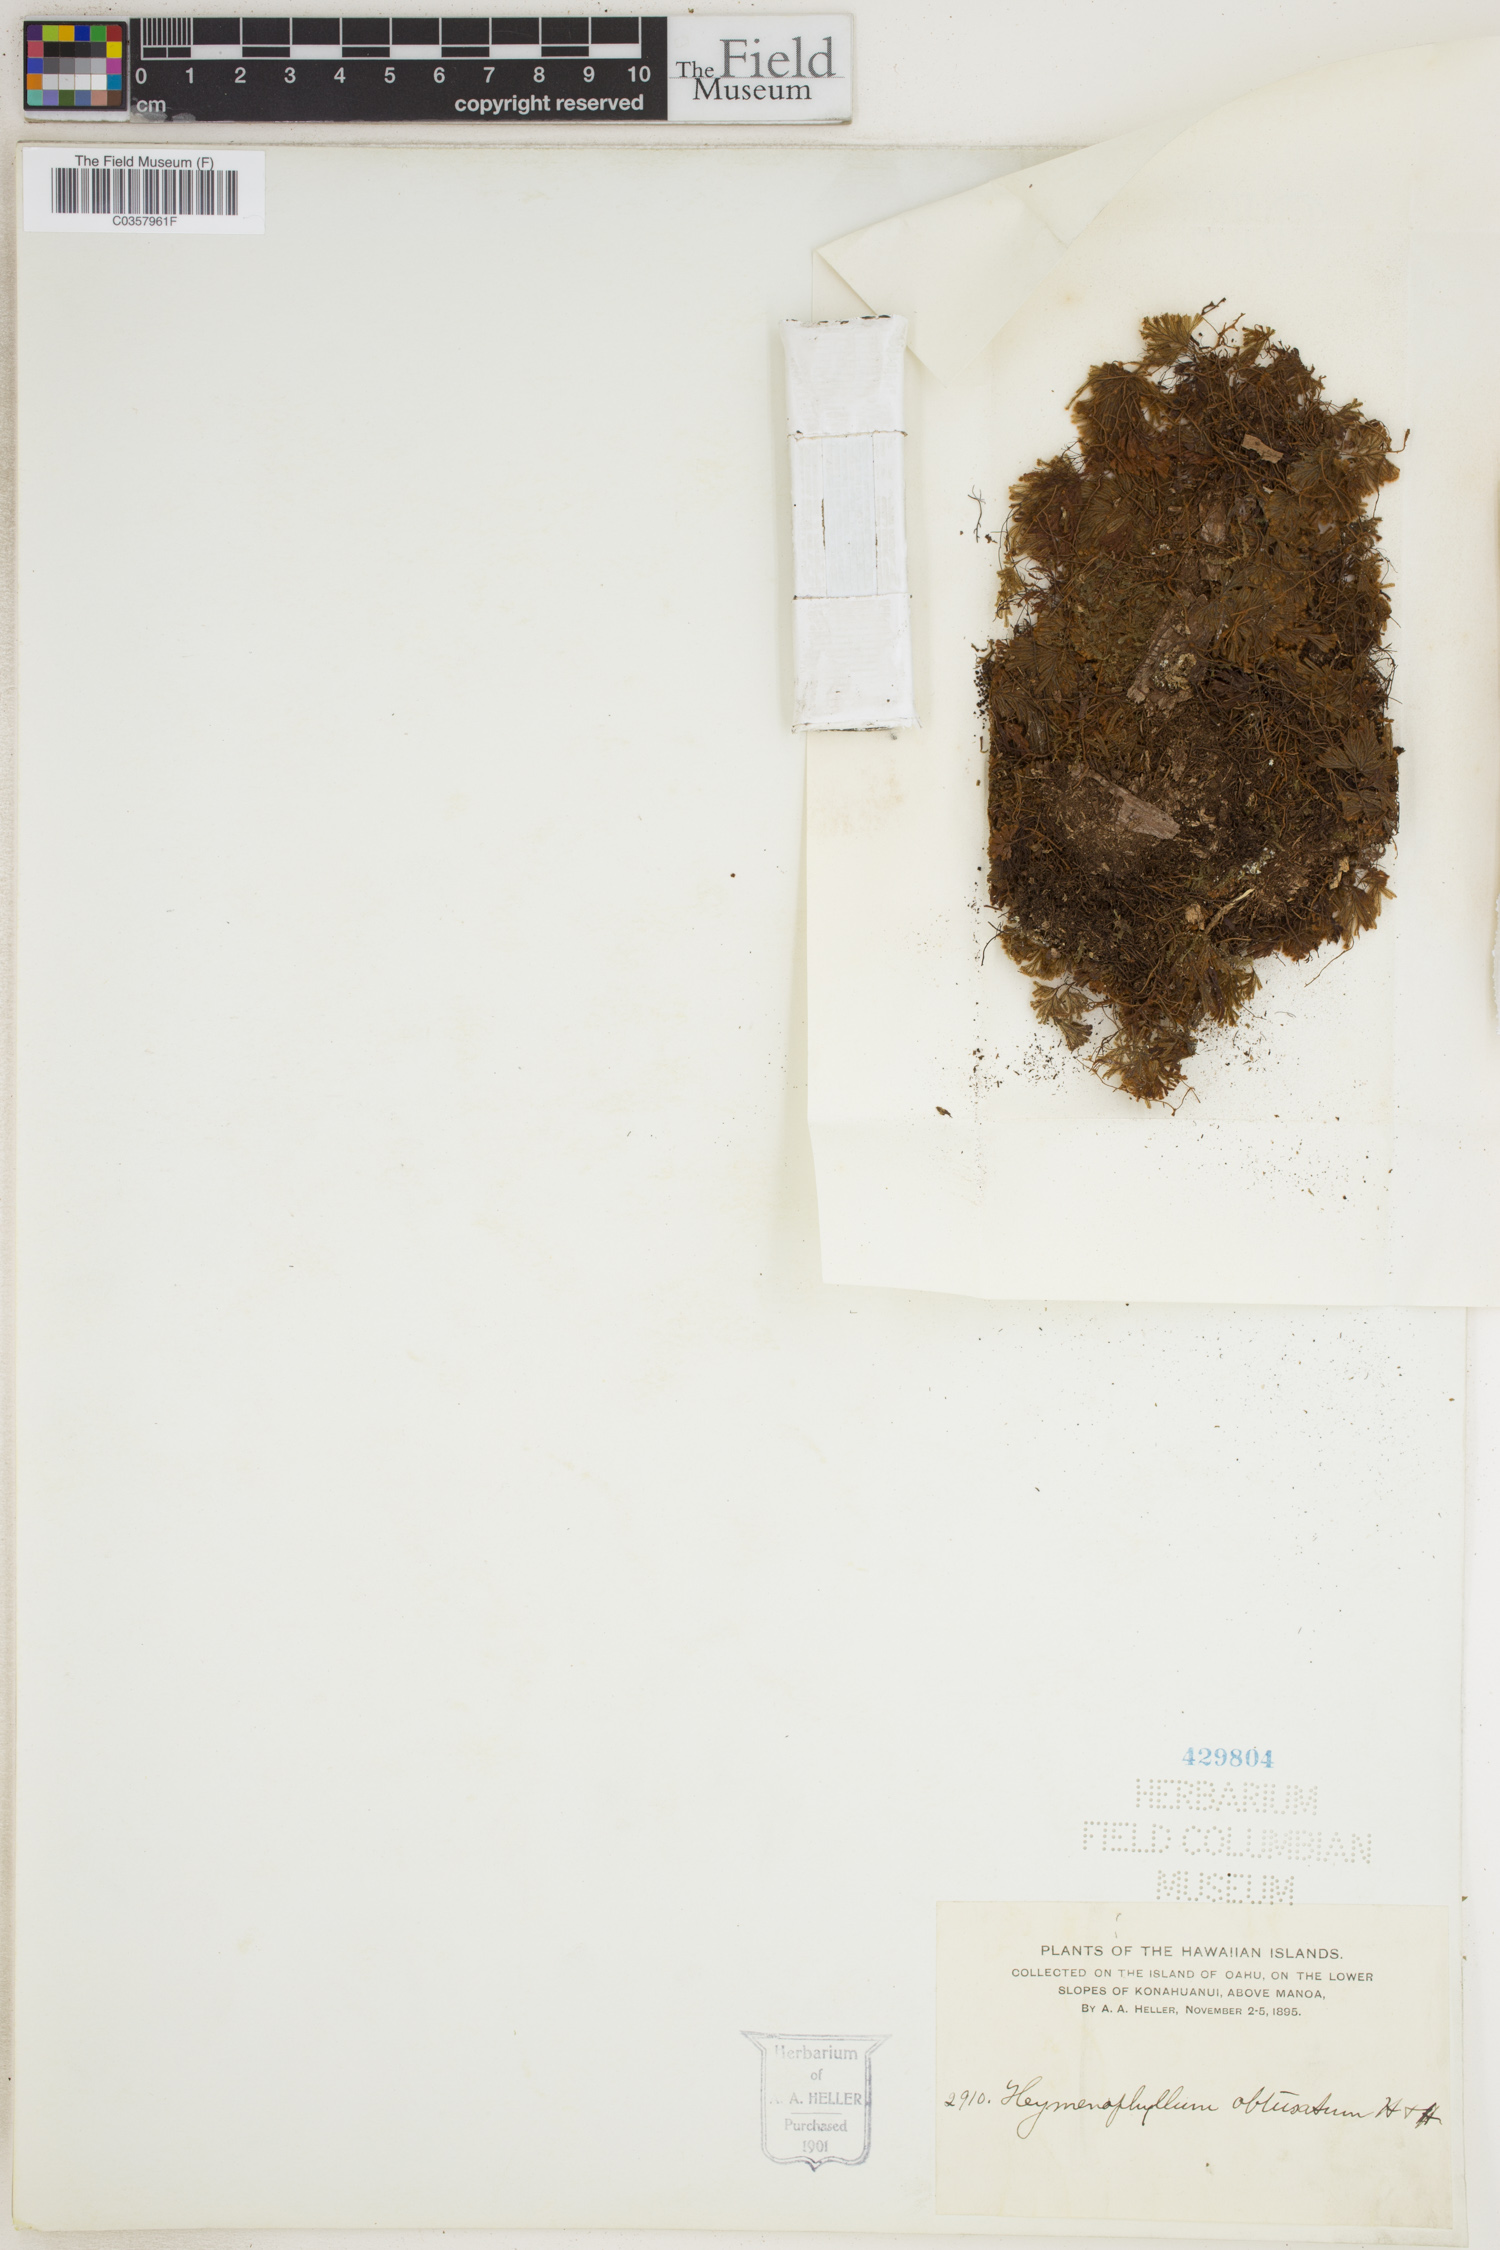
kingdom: Plantae
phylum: Tracheophyta
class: Polypodiopsida
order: Hymenophyllales
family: Hymenophyllaceae
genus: Hymenophyllum
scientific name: Hymenophyllum obtusum
